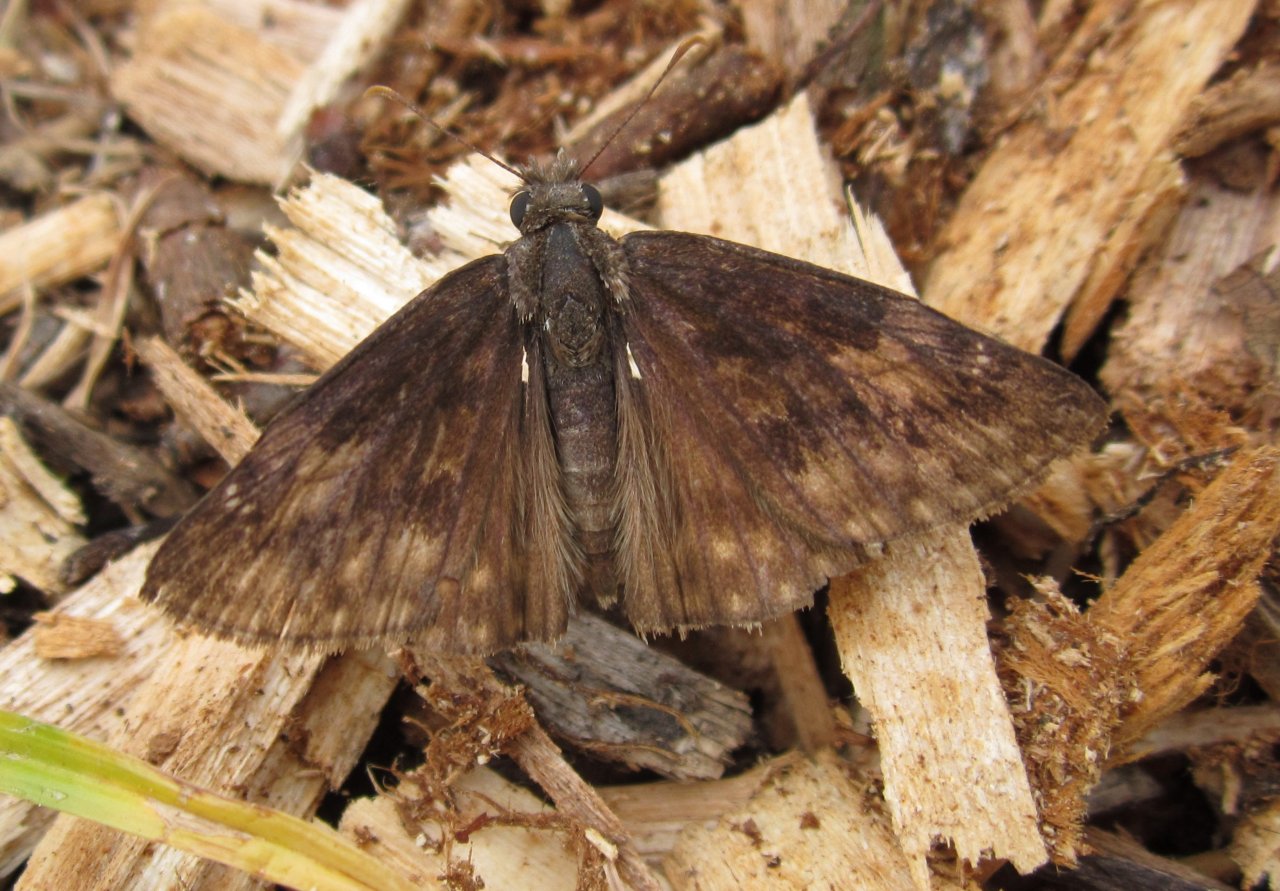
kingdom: Animalia
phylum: Arthropoda
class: Insecta
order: Lepidoptera
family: Hesperiidae
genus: Gesta
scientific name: Gesta
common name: Wild Indigo Duskywing
